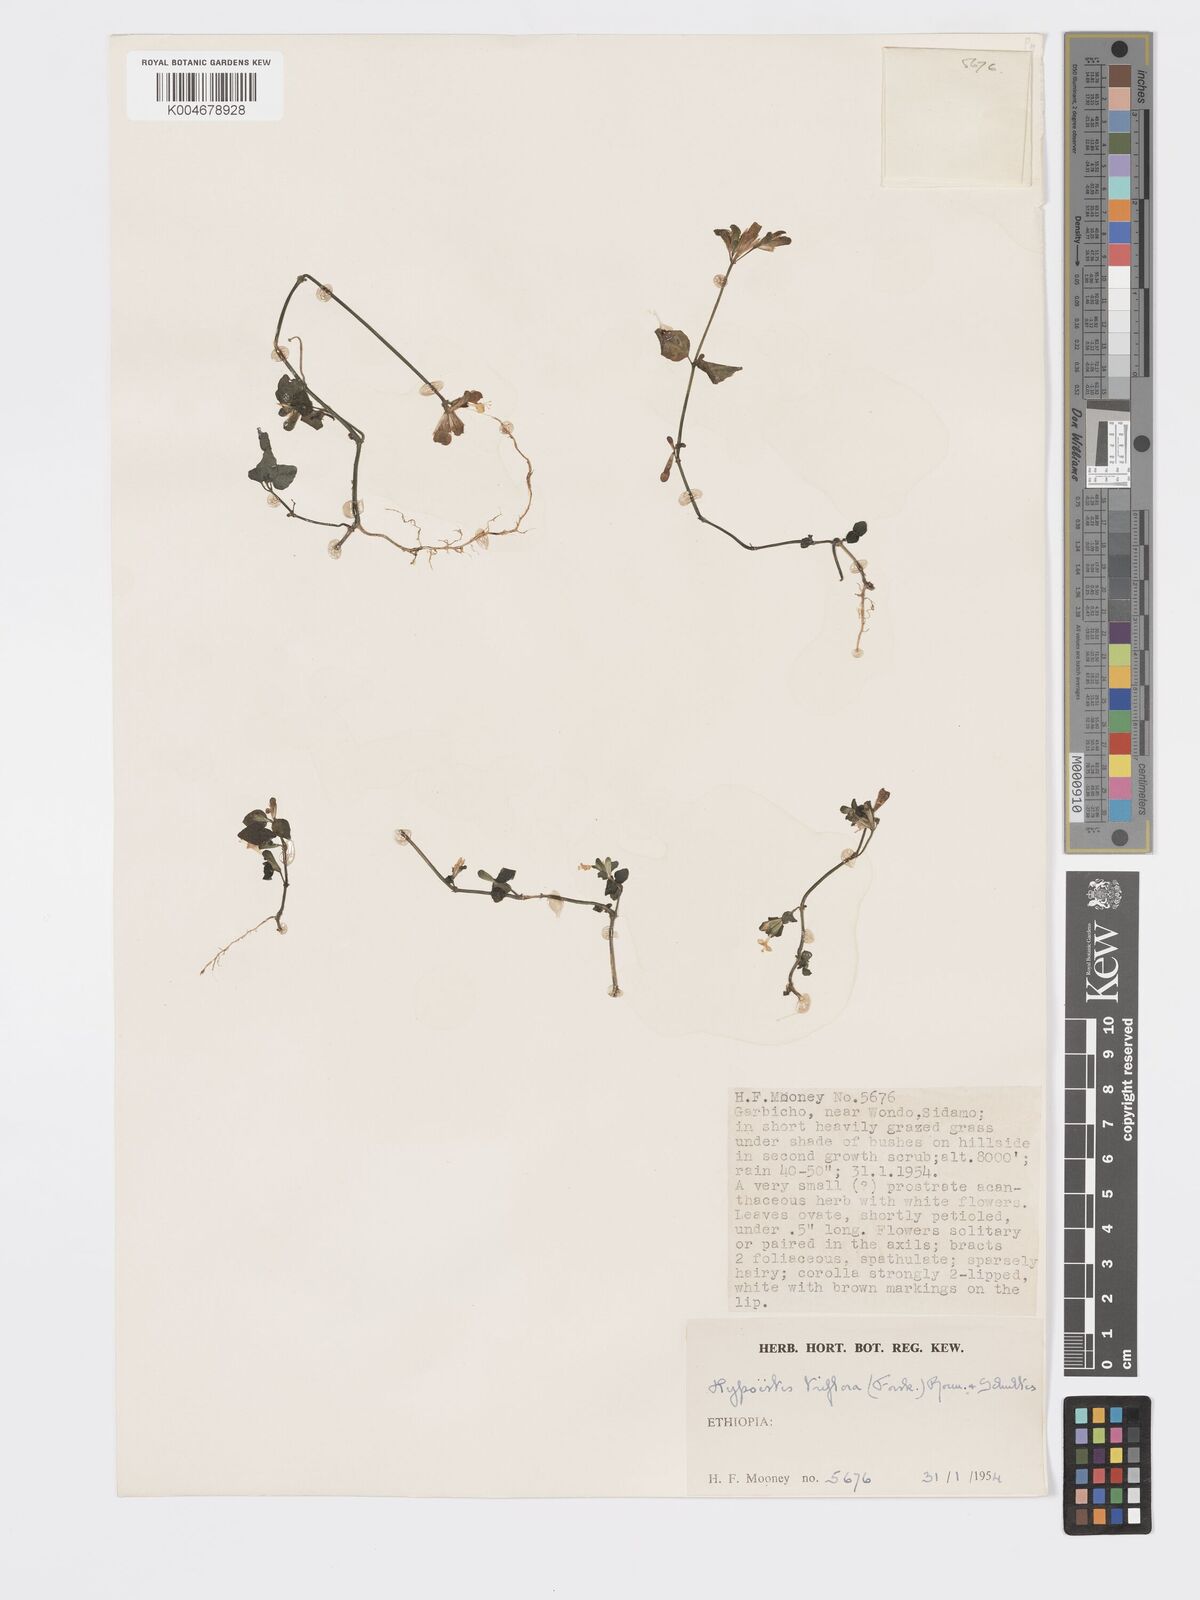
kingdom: Plantae
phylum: Tracheophyta
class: Magnoliopsida
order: Lamiales
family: Acanthaceae
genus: Hypoestes
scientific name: Hypoestes triflora
